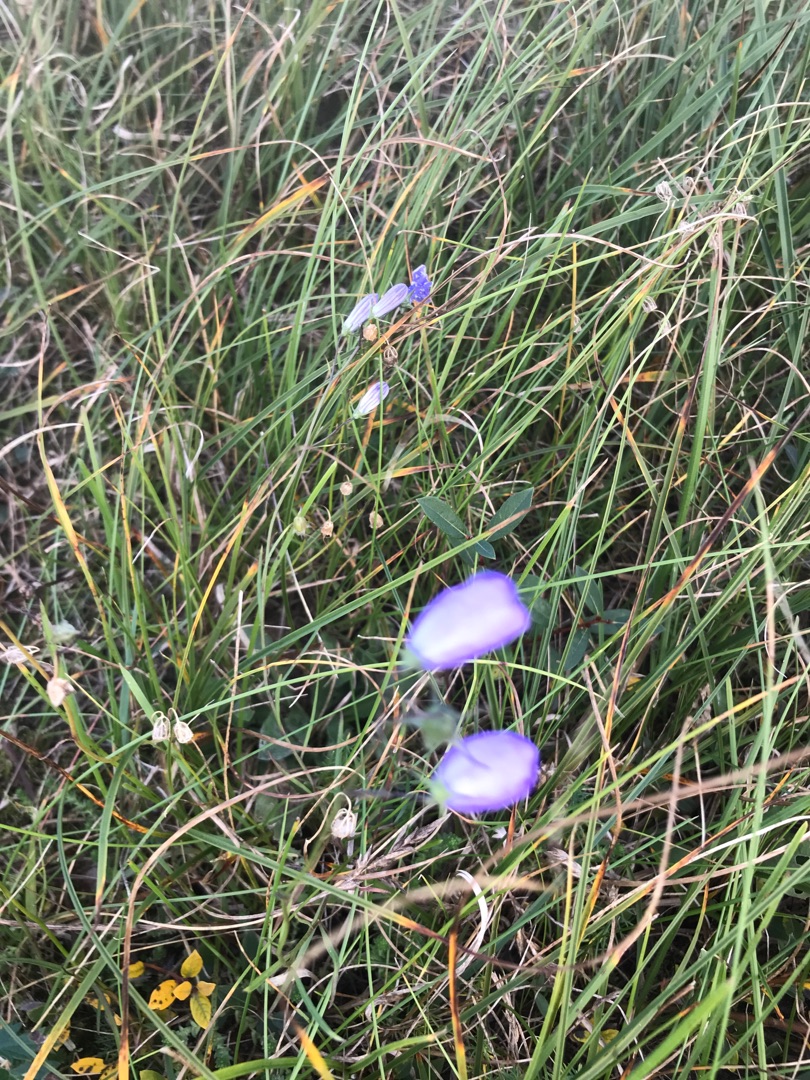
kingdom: Plantae
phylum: Tracheophyta
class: Magnoliopsida
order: Asterales
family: Campanulaceae
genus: Campanula
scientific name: Campanula rotundifolia
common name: Liden klokke
